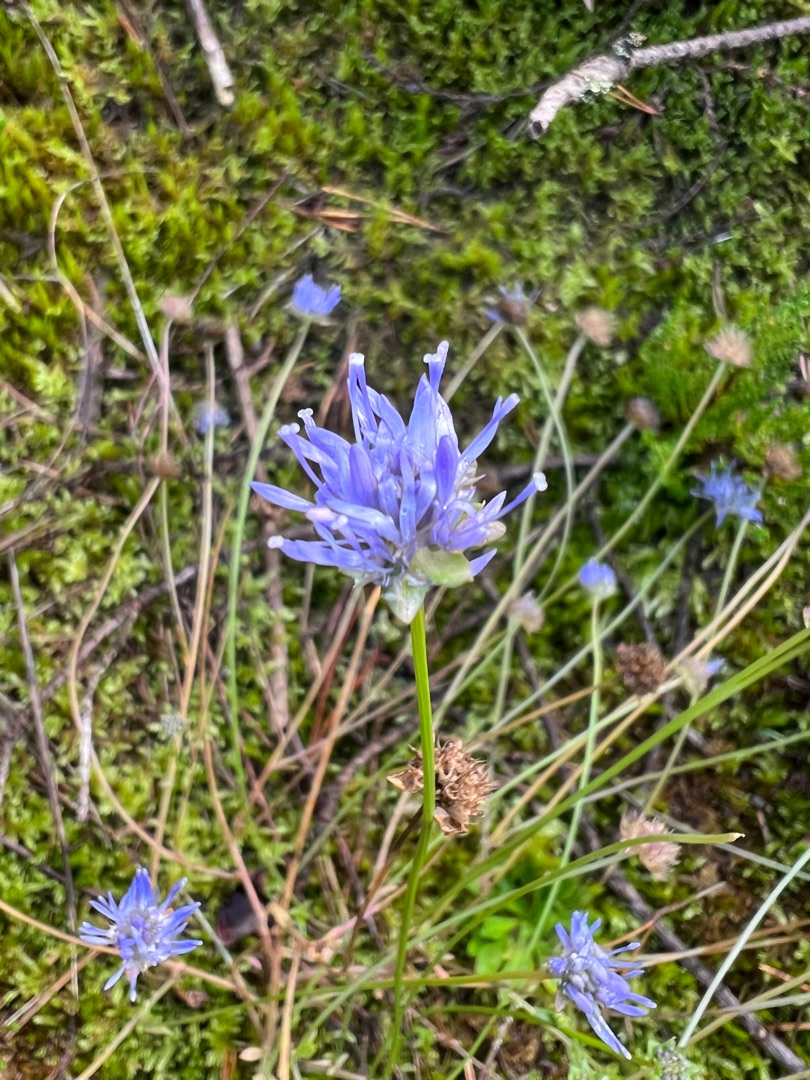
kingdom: Plantae
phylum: Tracheophyta
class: Magnoliopsida
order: Asterales
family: Campanulaceae
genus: Jasione
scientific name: Jasione montana
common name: Blåmunke
